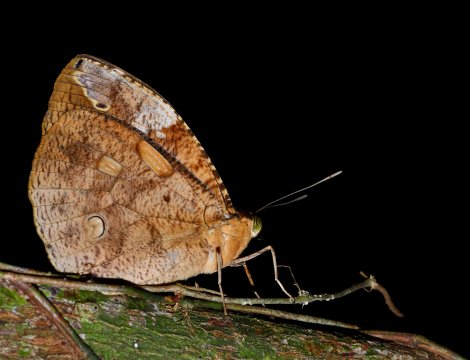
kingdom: Animalia
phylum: Arthropoda
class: Insecta
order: Lepidoptera
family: Nymphalidae
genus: Dynastor
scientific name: Dynastor darius
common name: Daring Owl-Butterfly
